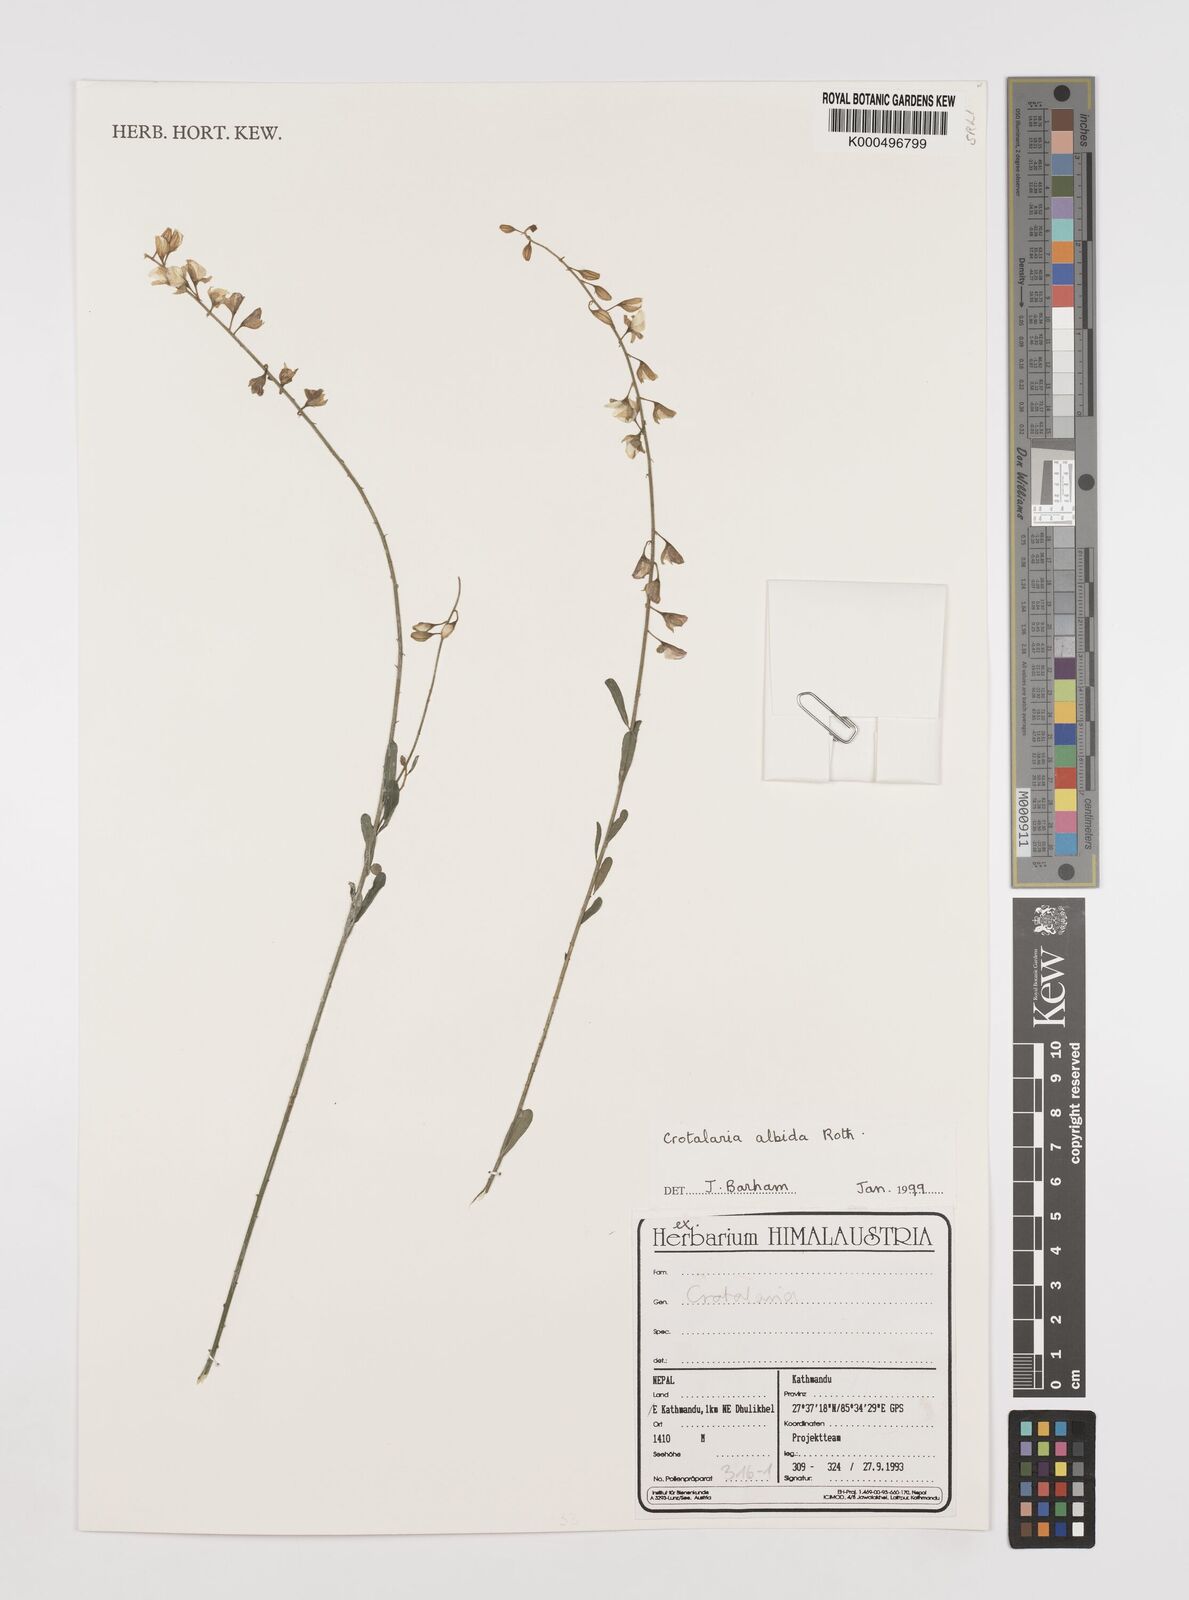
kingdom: Plantae
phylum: Tracheophyta
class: Magnoliopsida
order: Fabales
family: Fabaceae
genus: Crotalaria
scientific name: Crotalaria albida
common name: Taiwan crotalaria
